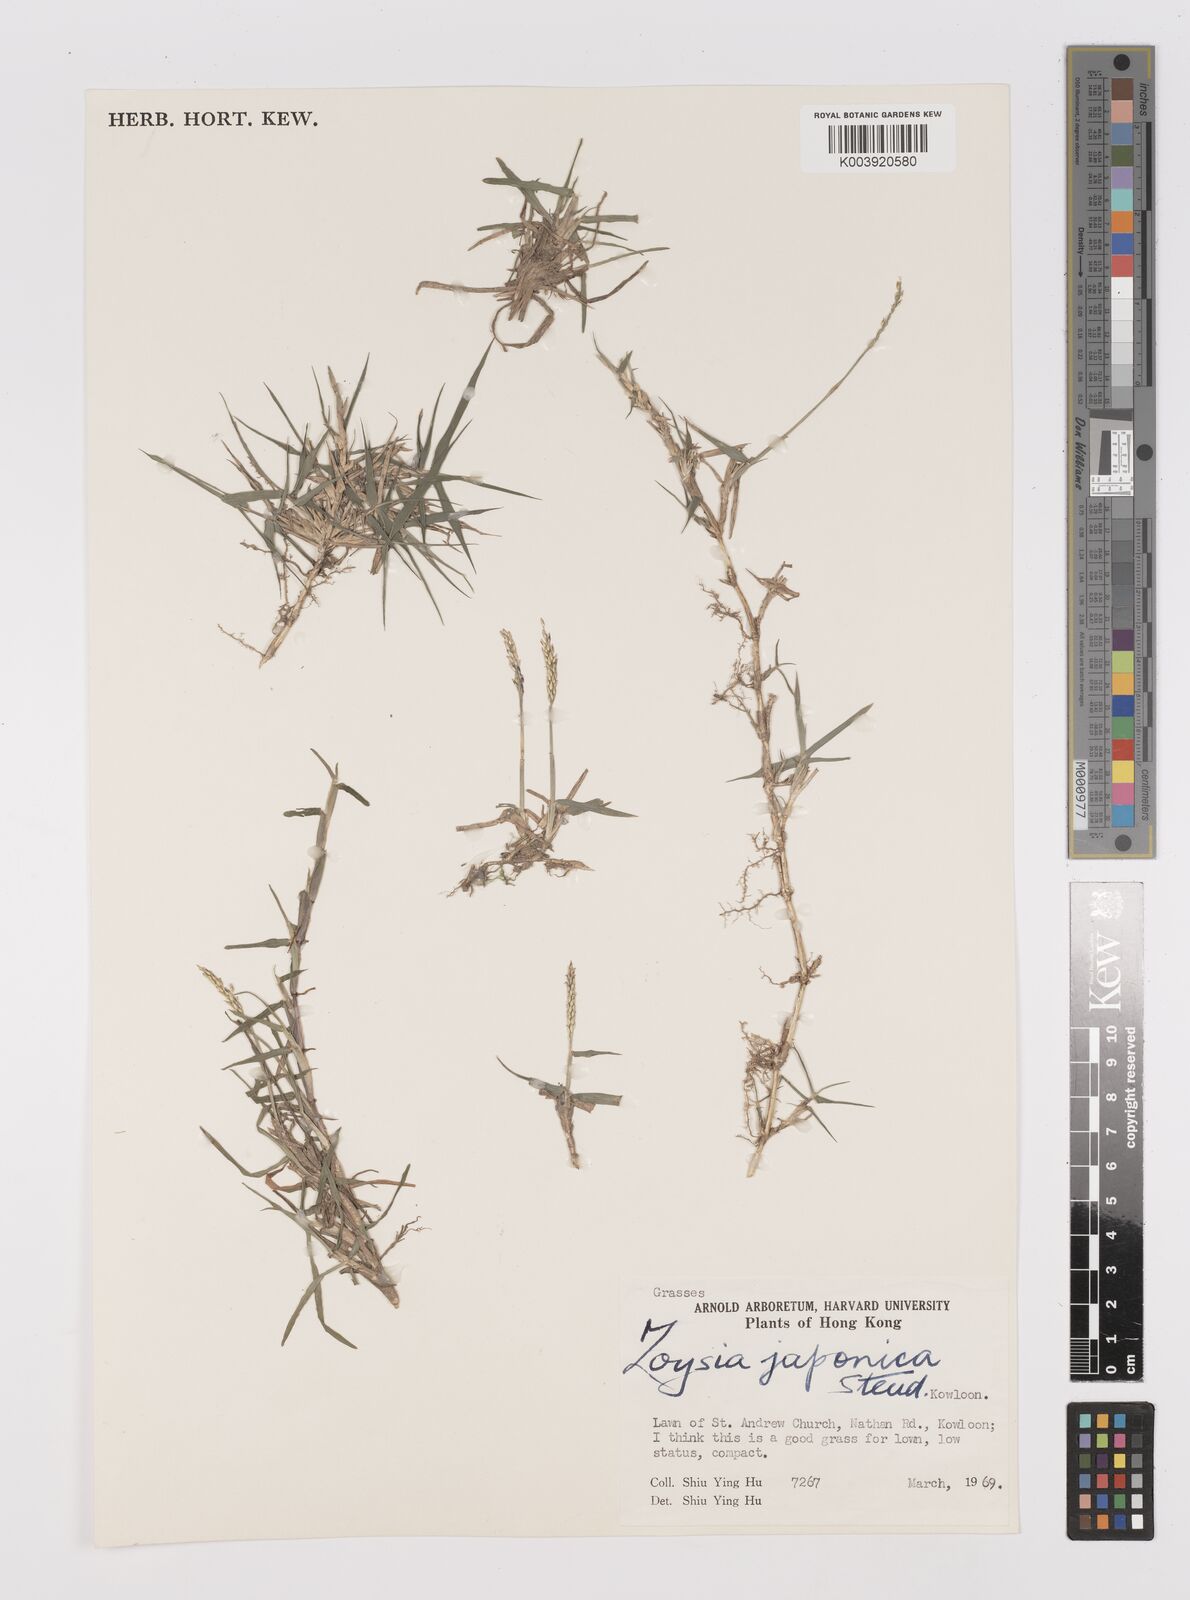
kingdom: Plantae
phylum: Tracheophyta
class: Liliopsida
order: Poales
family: Poaceae
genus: Zoysia
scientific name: Zoysia japonica
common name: Korean lawngrass
